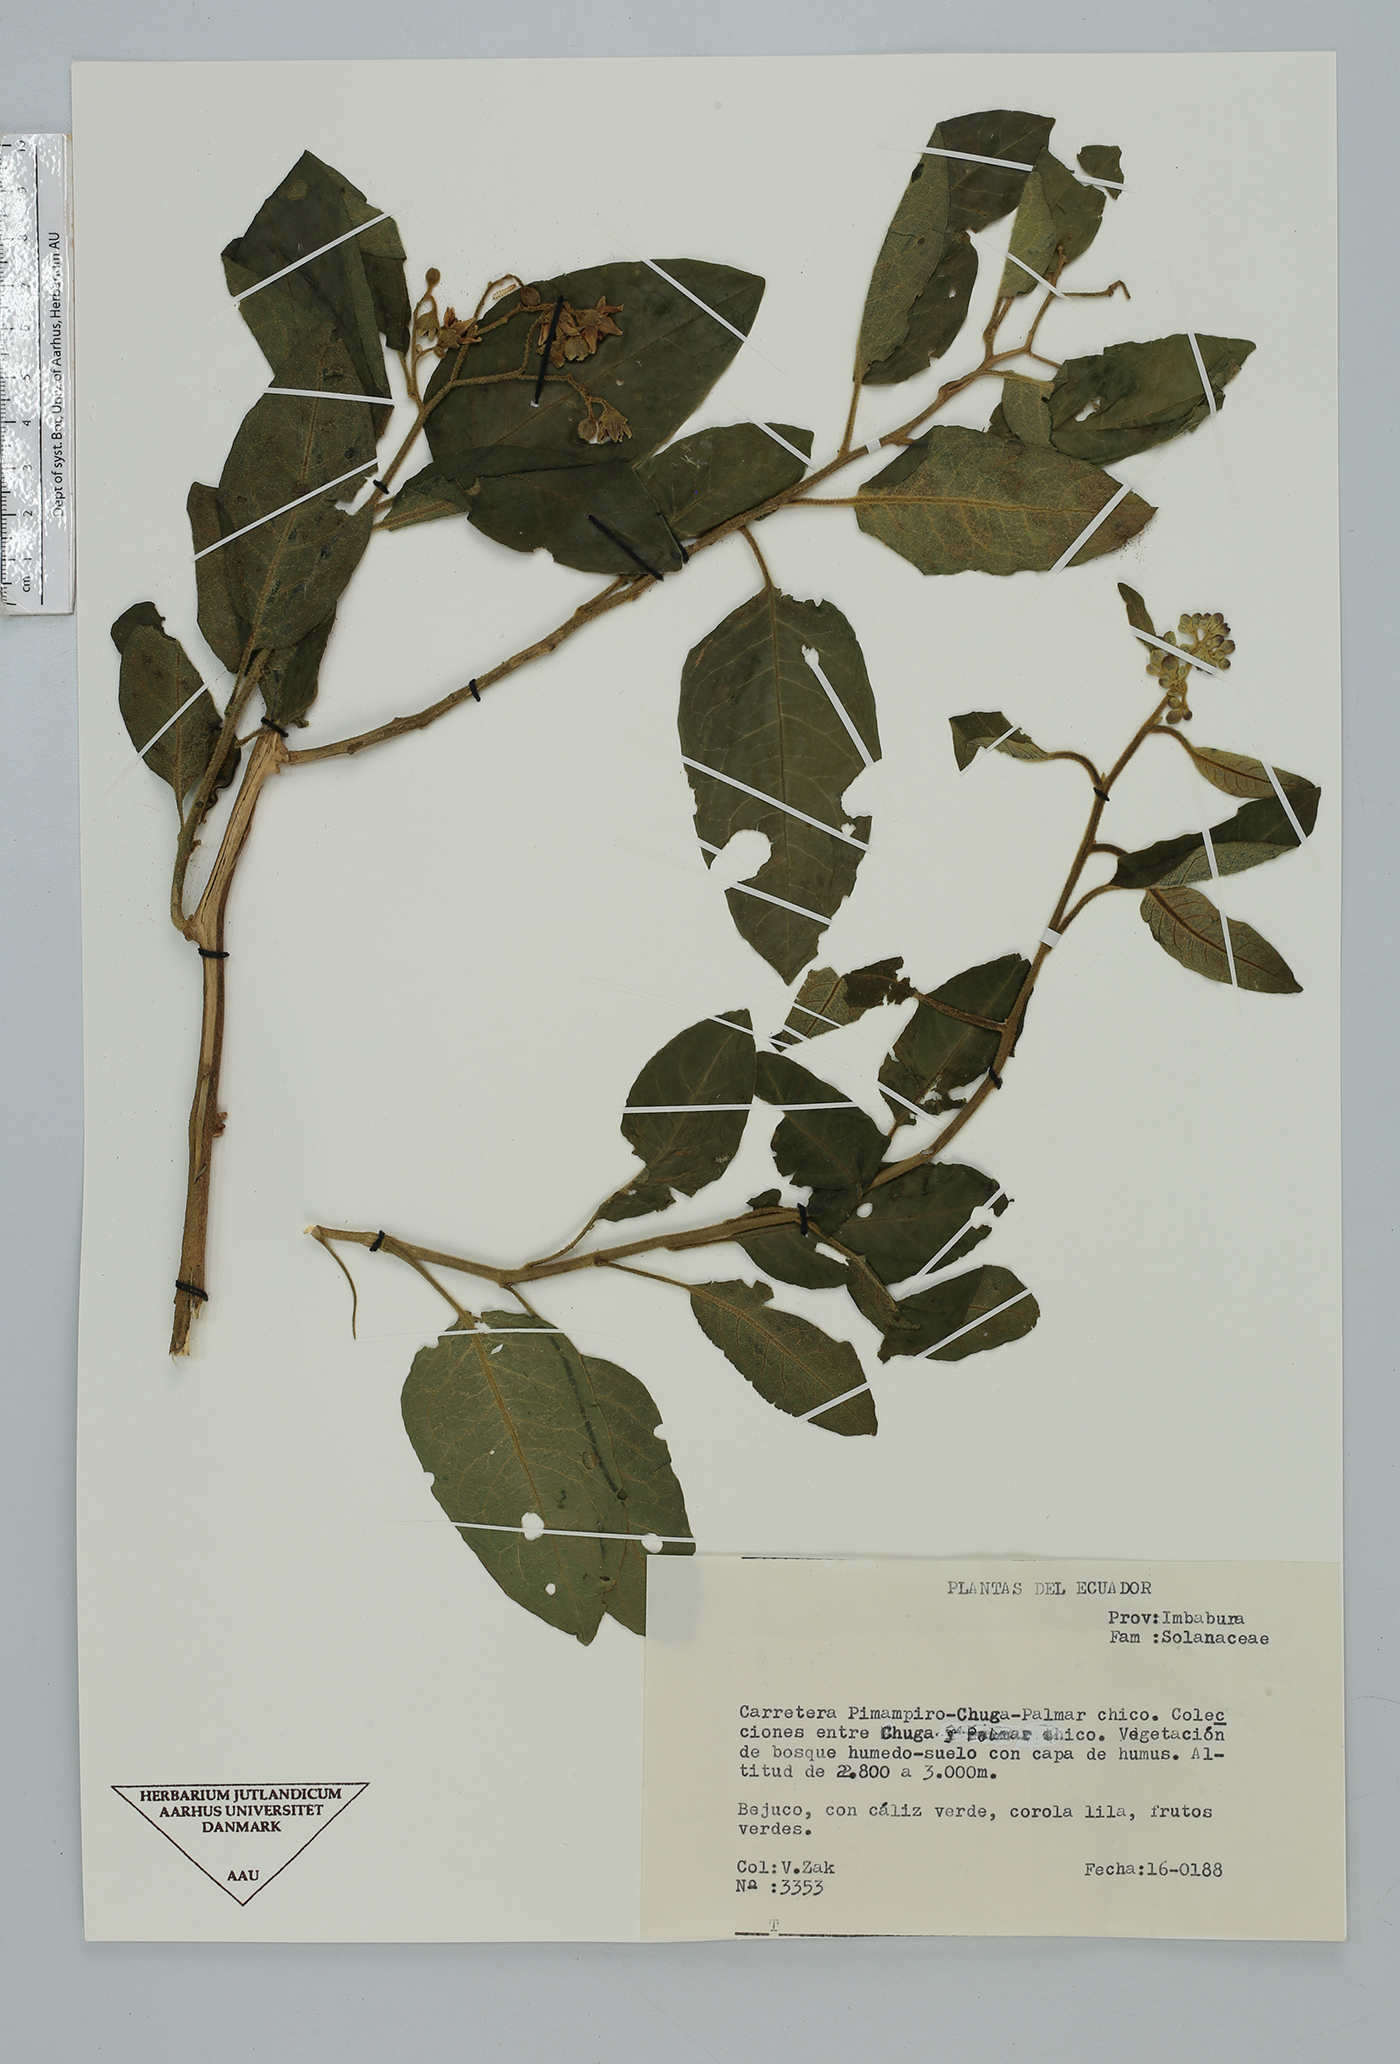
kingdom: Plantae
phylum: Tracheophyta
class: Magnoliopsida
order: Solanales
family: Solanaceae
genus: Solanum
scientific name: Solanum
